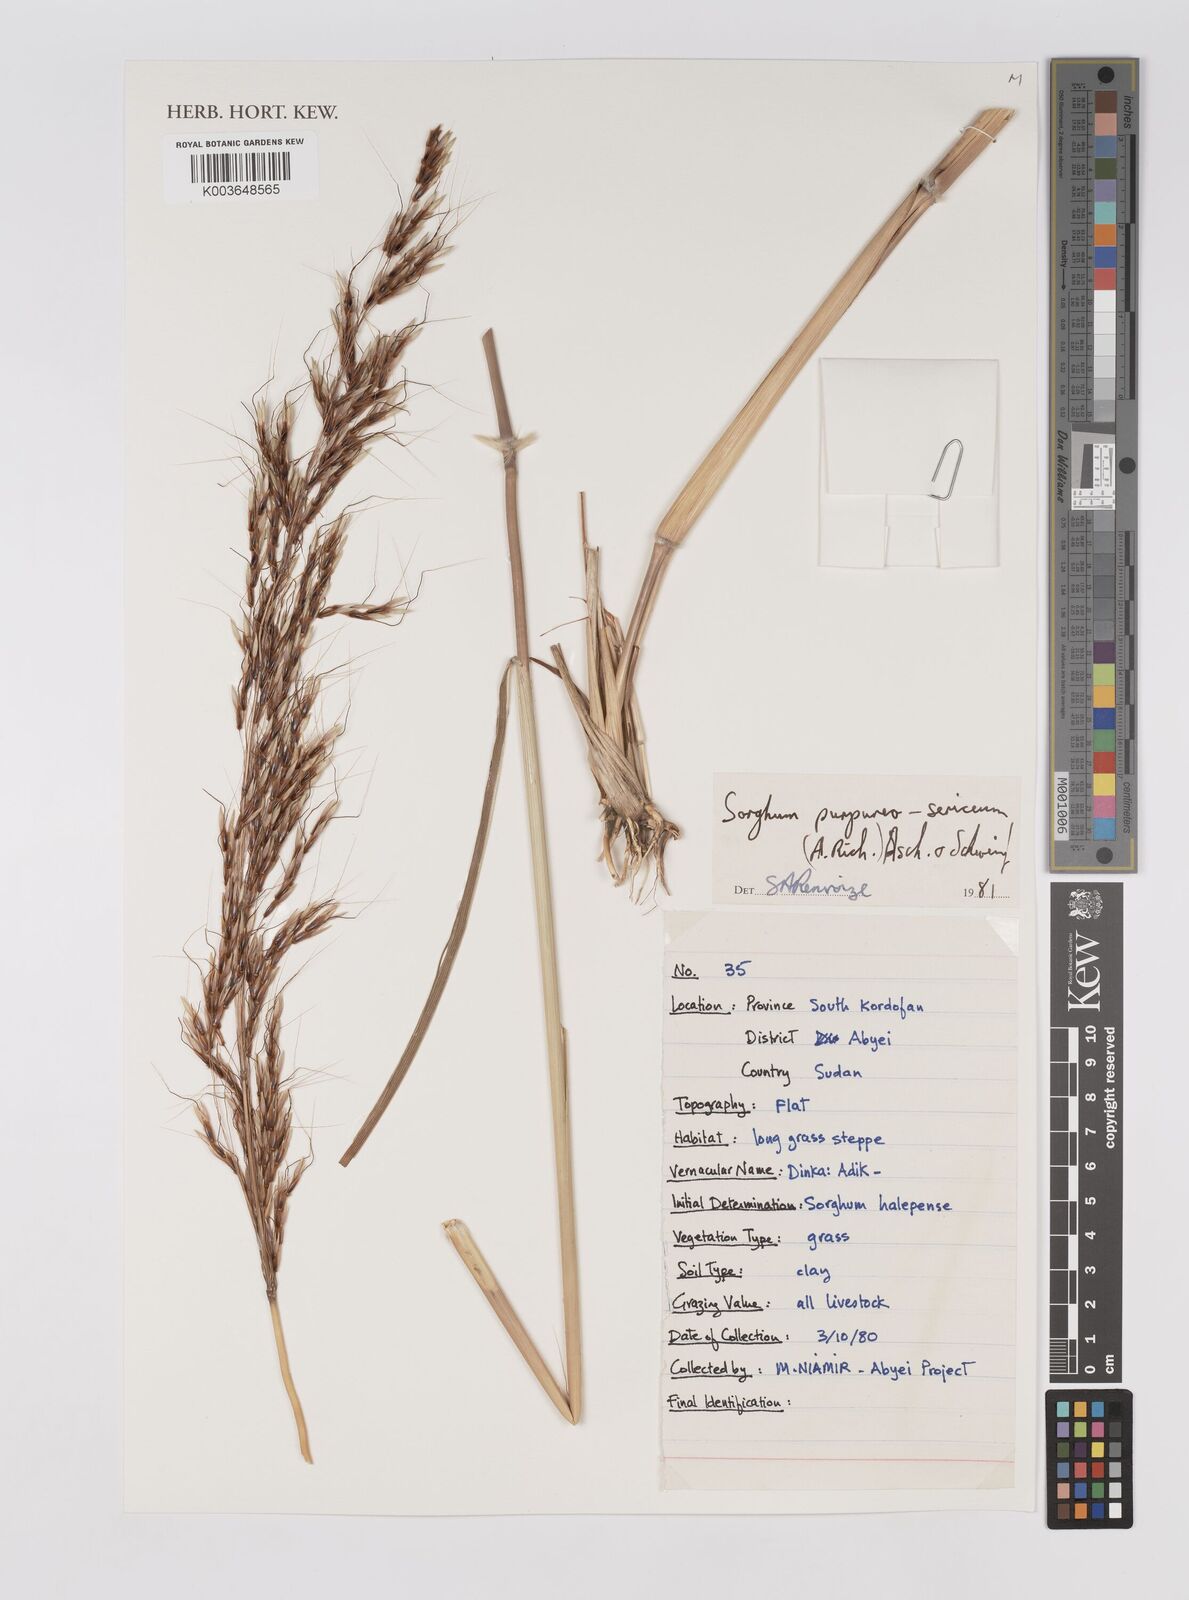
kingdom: Plantae
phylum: Tracheophyta
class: Liliopsida
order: Poales
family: Poaceae
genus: Sarga
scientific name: Sarga purpureosericea
